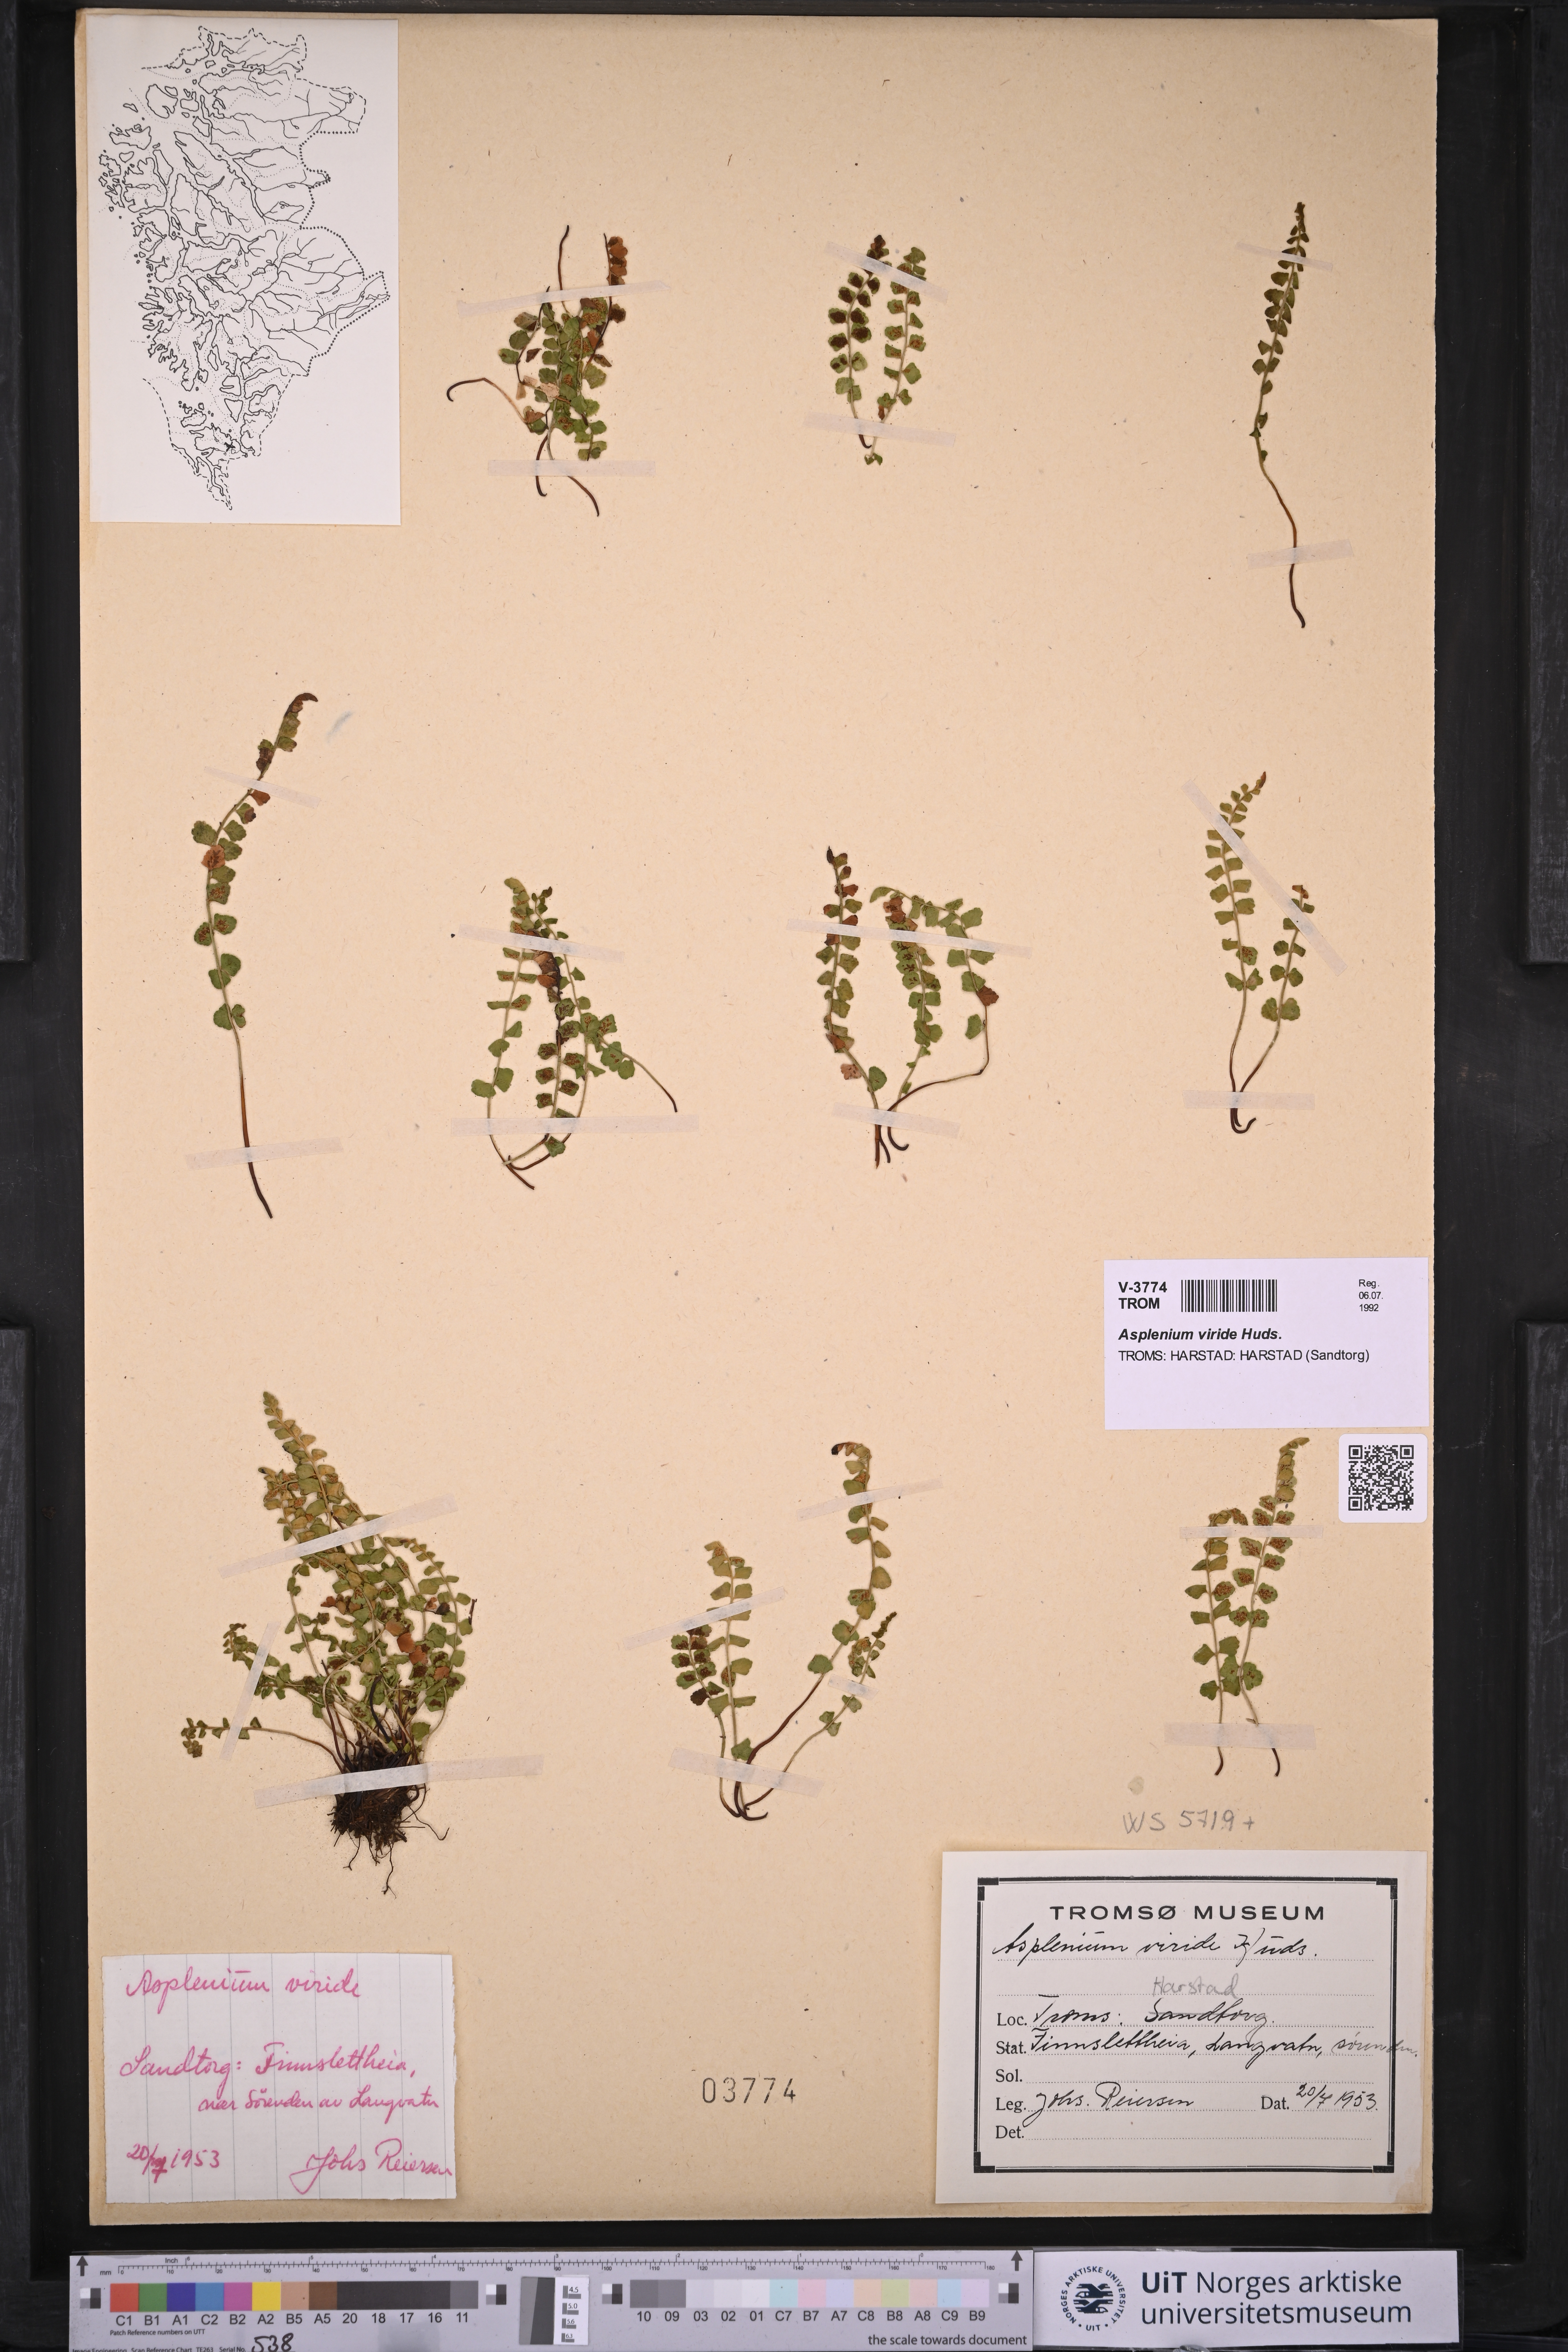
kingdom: Plantae
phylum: Tracheophyta
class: Polypodiopsida
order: Polypodiales
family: Aspleniaceae
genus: Asplenium
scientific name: Asplenium viride
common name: Green spleenwort
